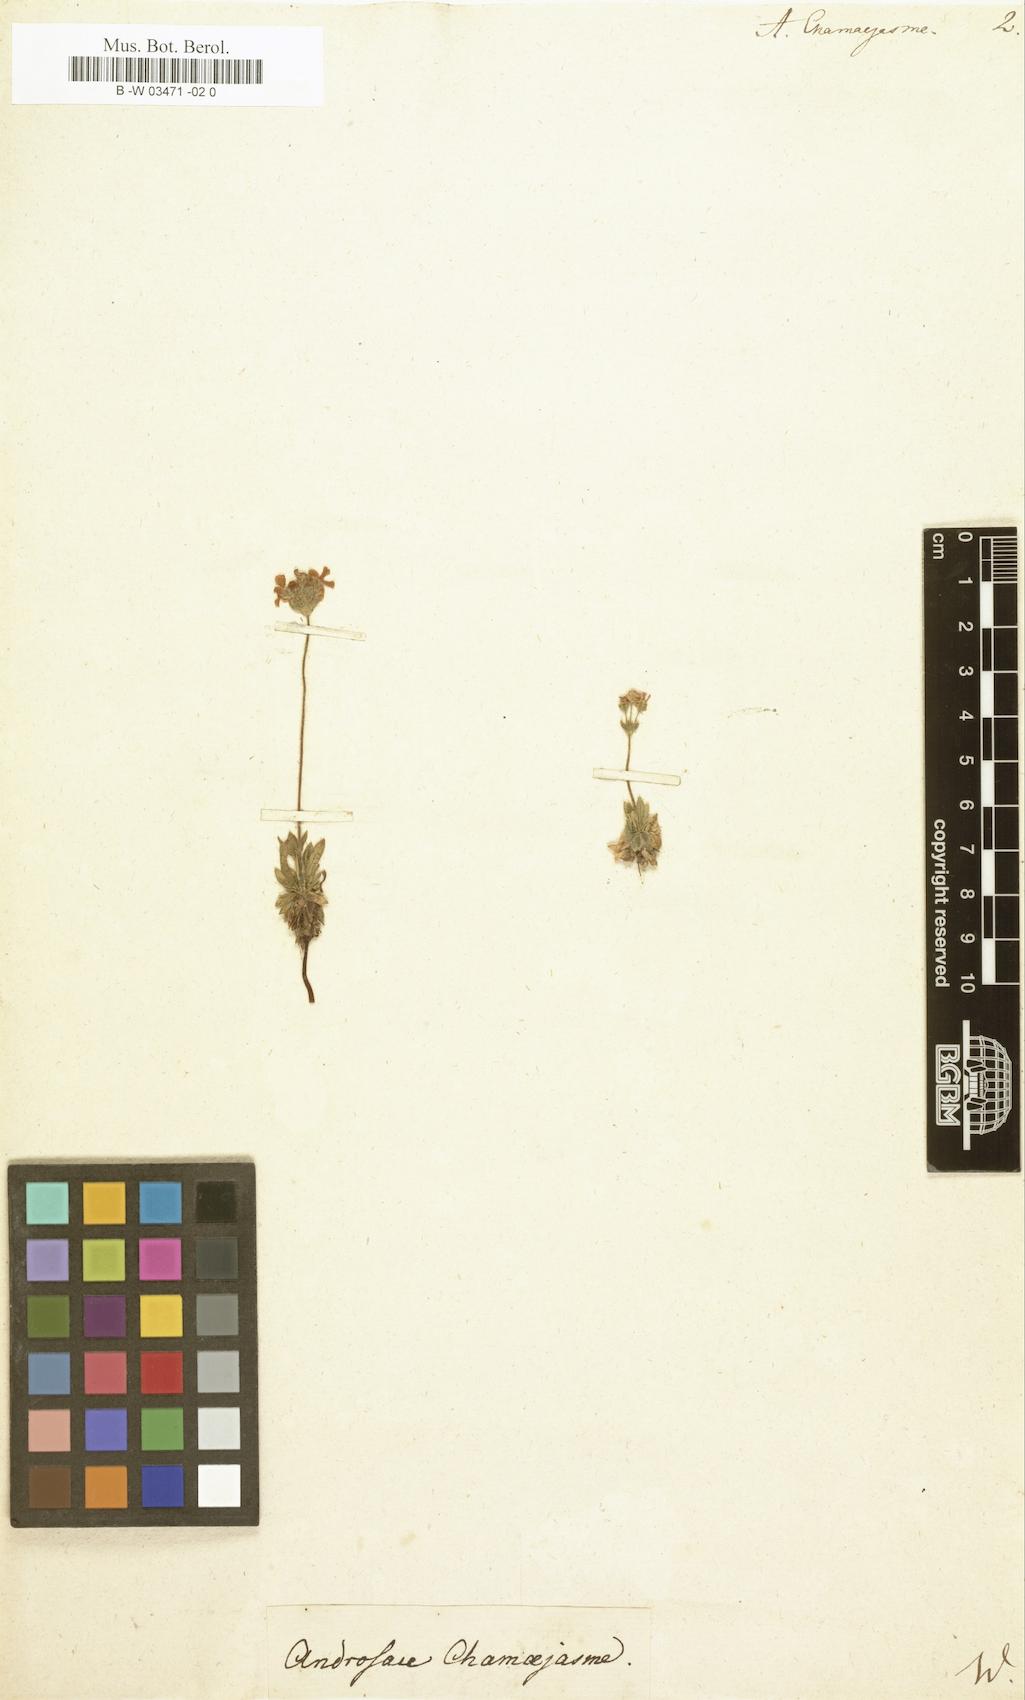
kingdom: Plantae
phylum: Tracheophyta
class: Magnoliopsida
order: Ericales
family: Primulaceae
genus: Androsace
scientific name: Androsace chamaejasme
